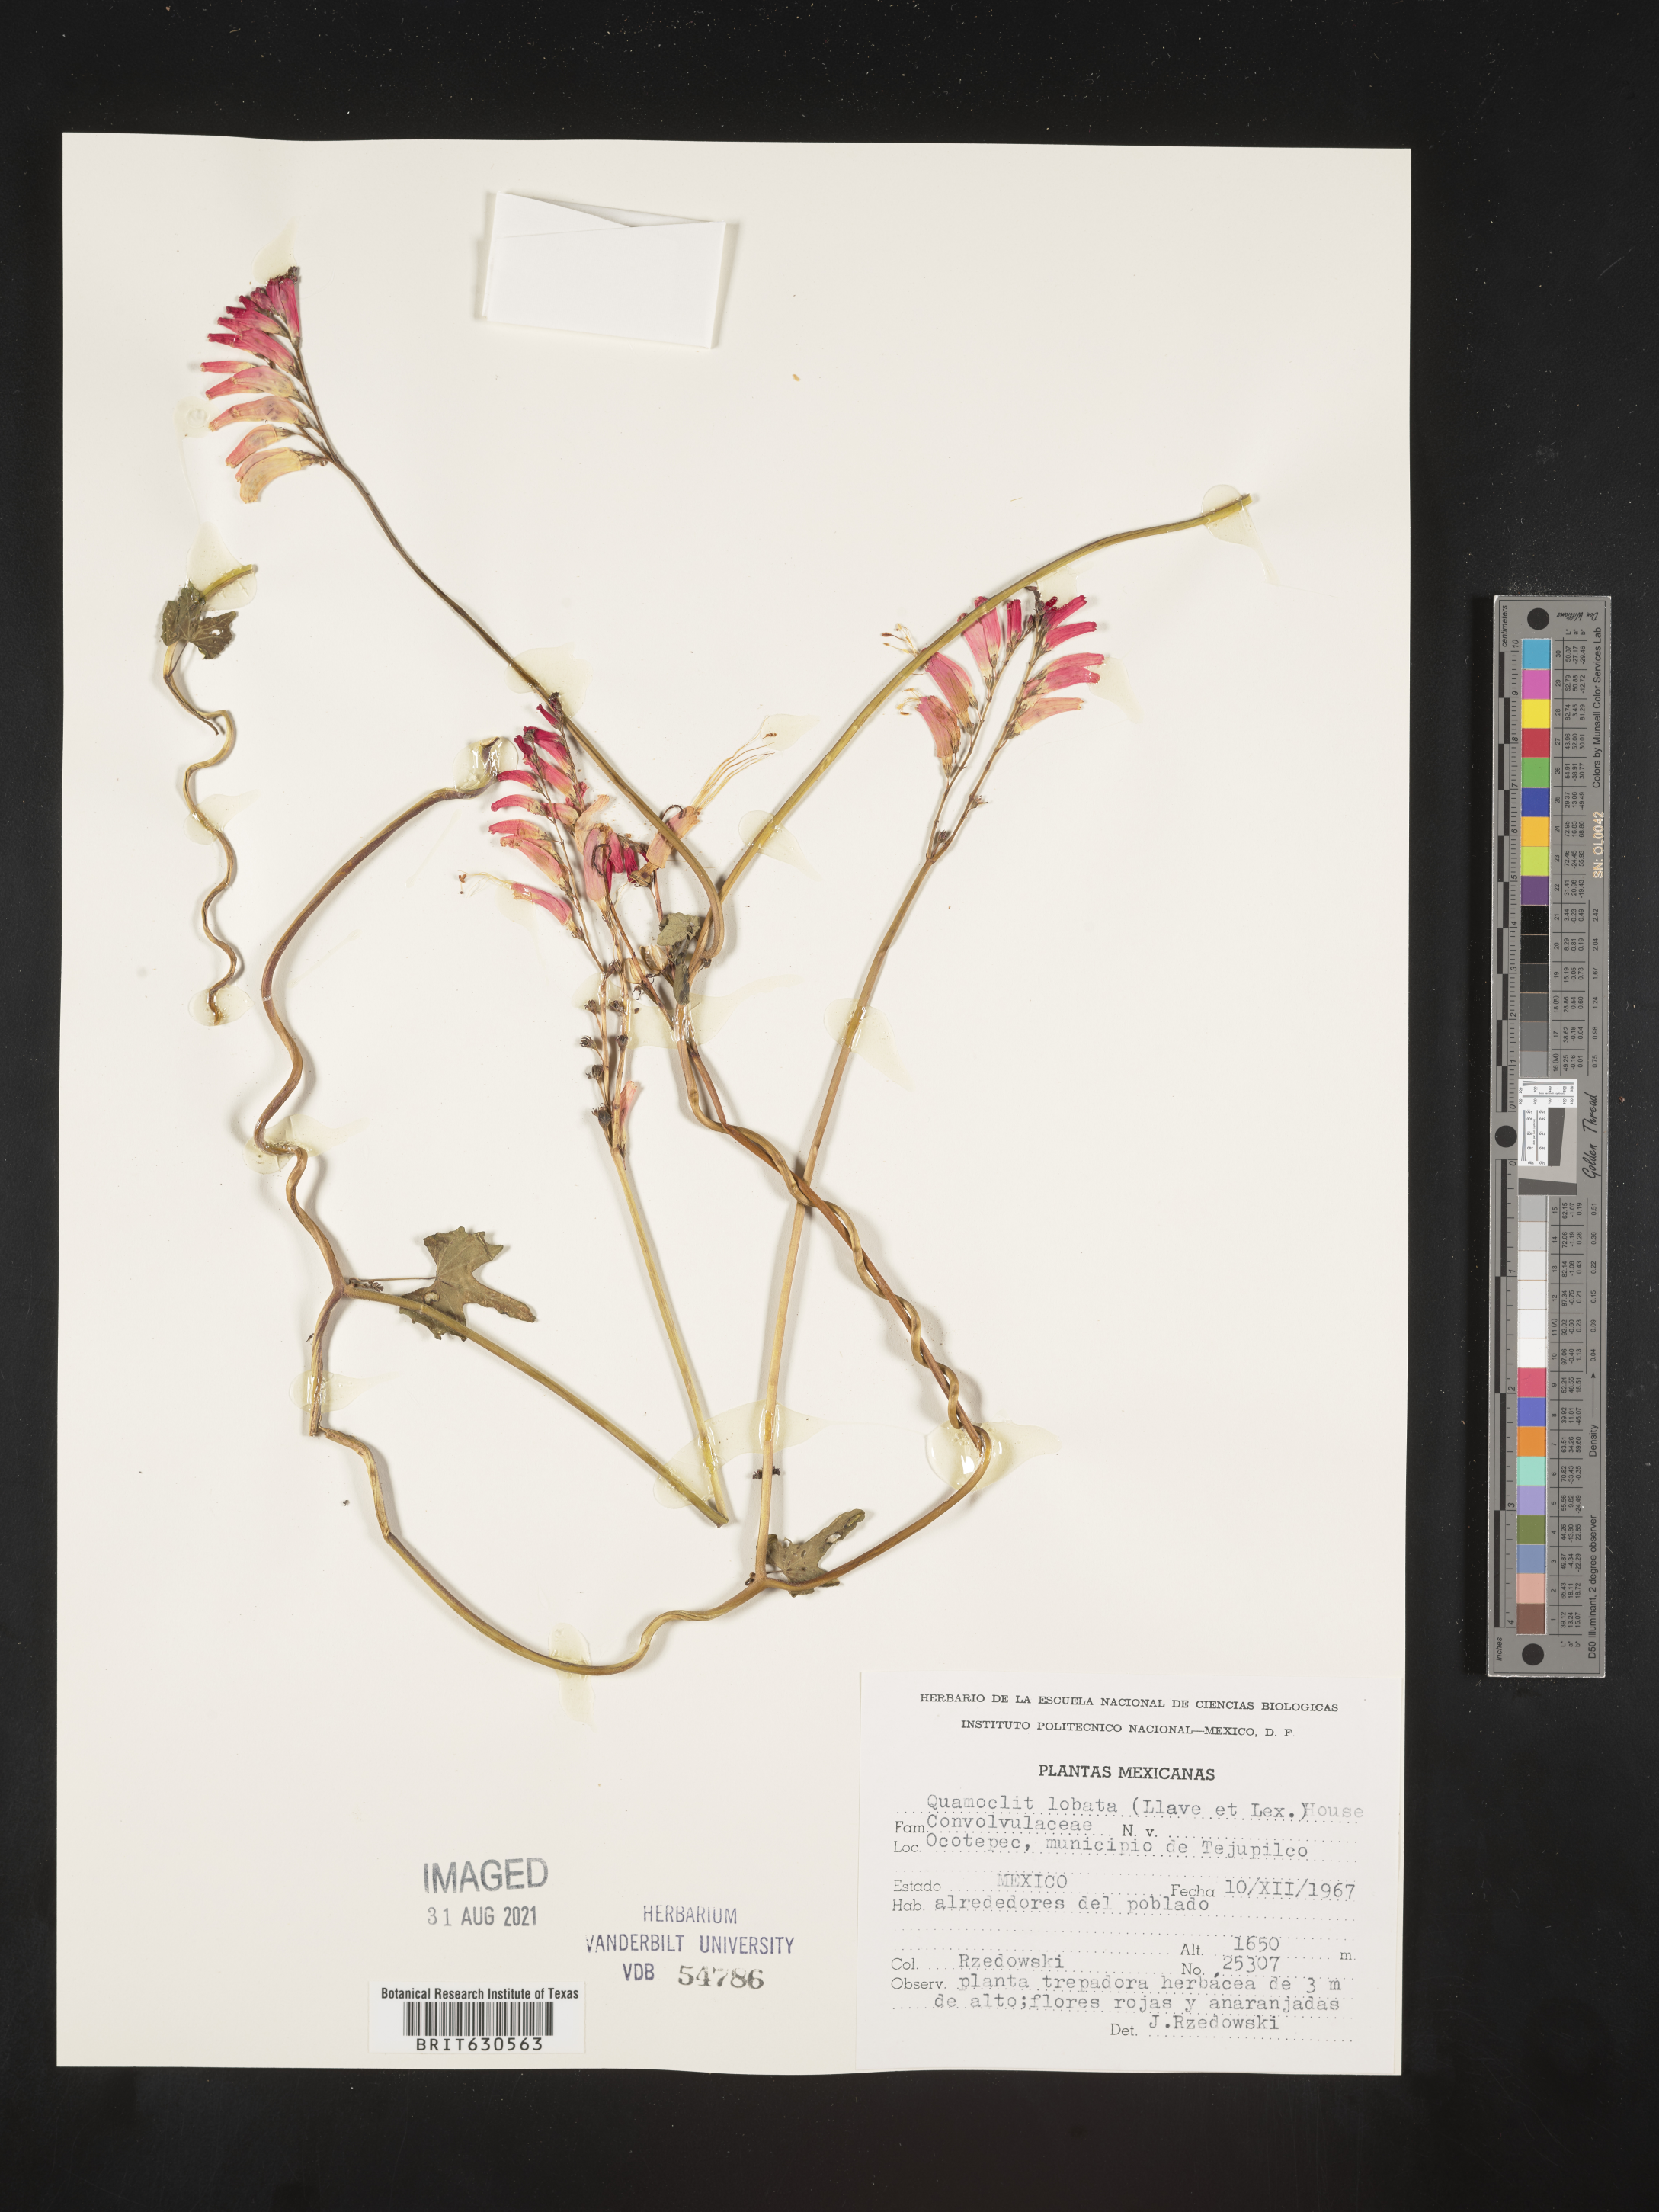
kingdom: Plantae
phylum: Tracheophyta
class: Magnoliopsida
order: Solanales
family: Convolvulaceae
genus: Ipomoea
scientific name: Ipomoea
